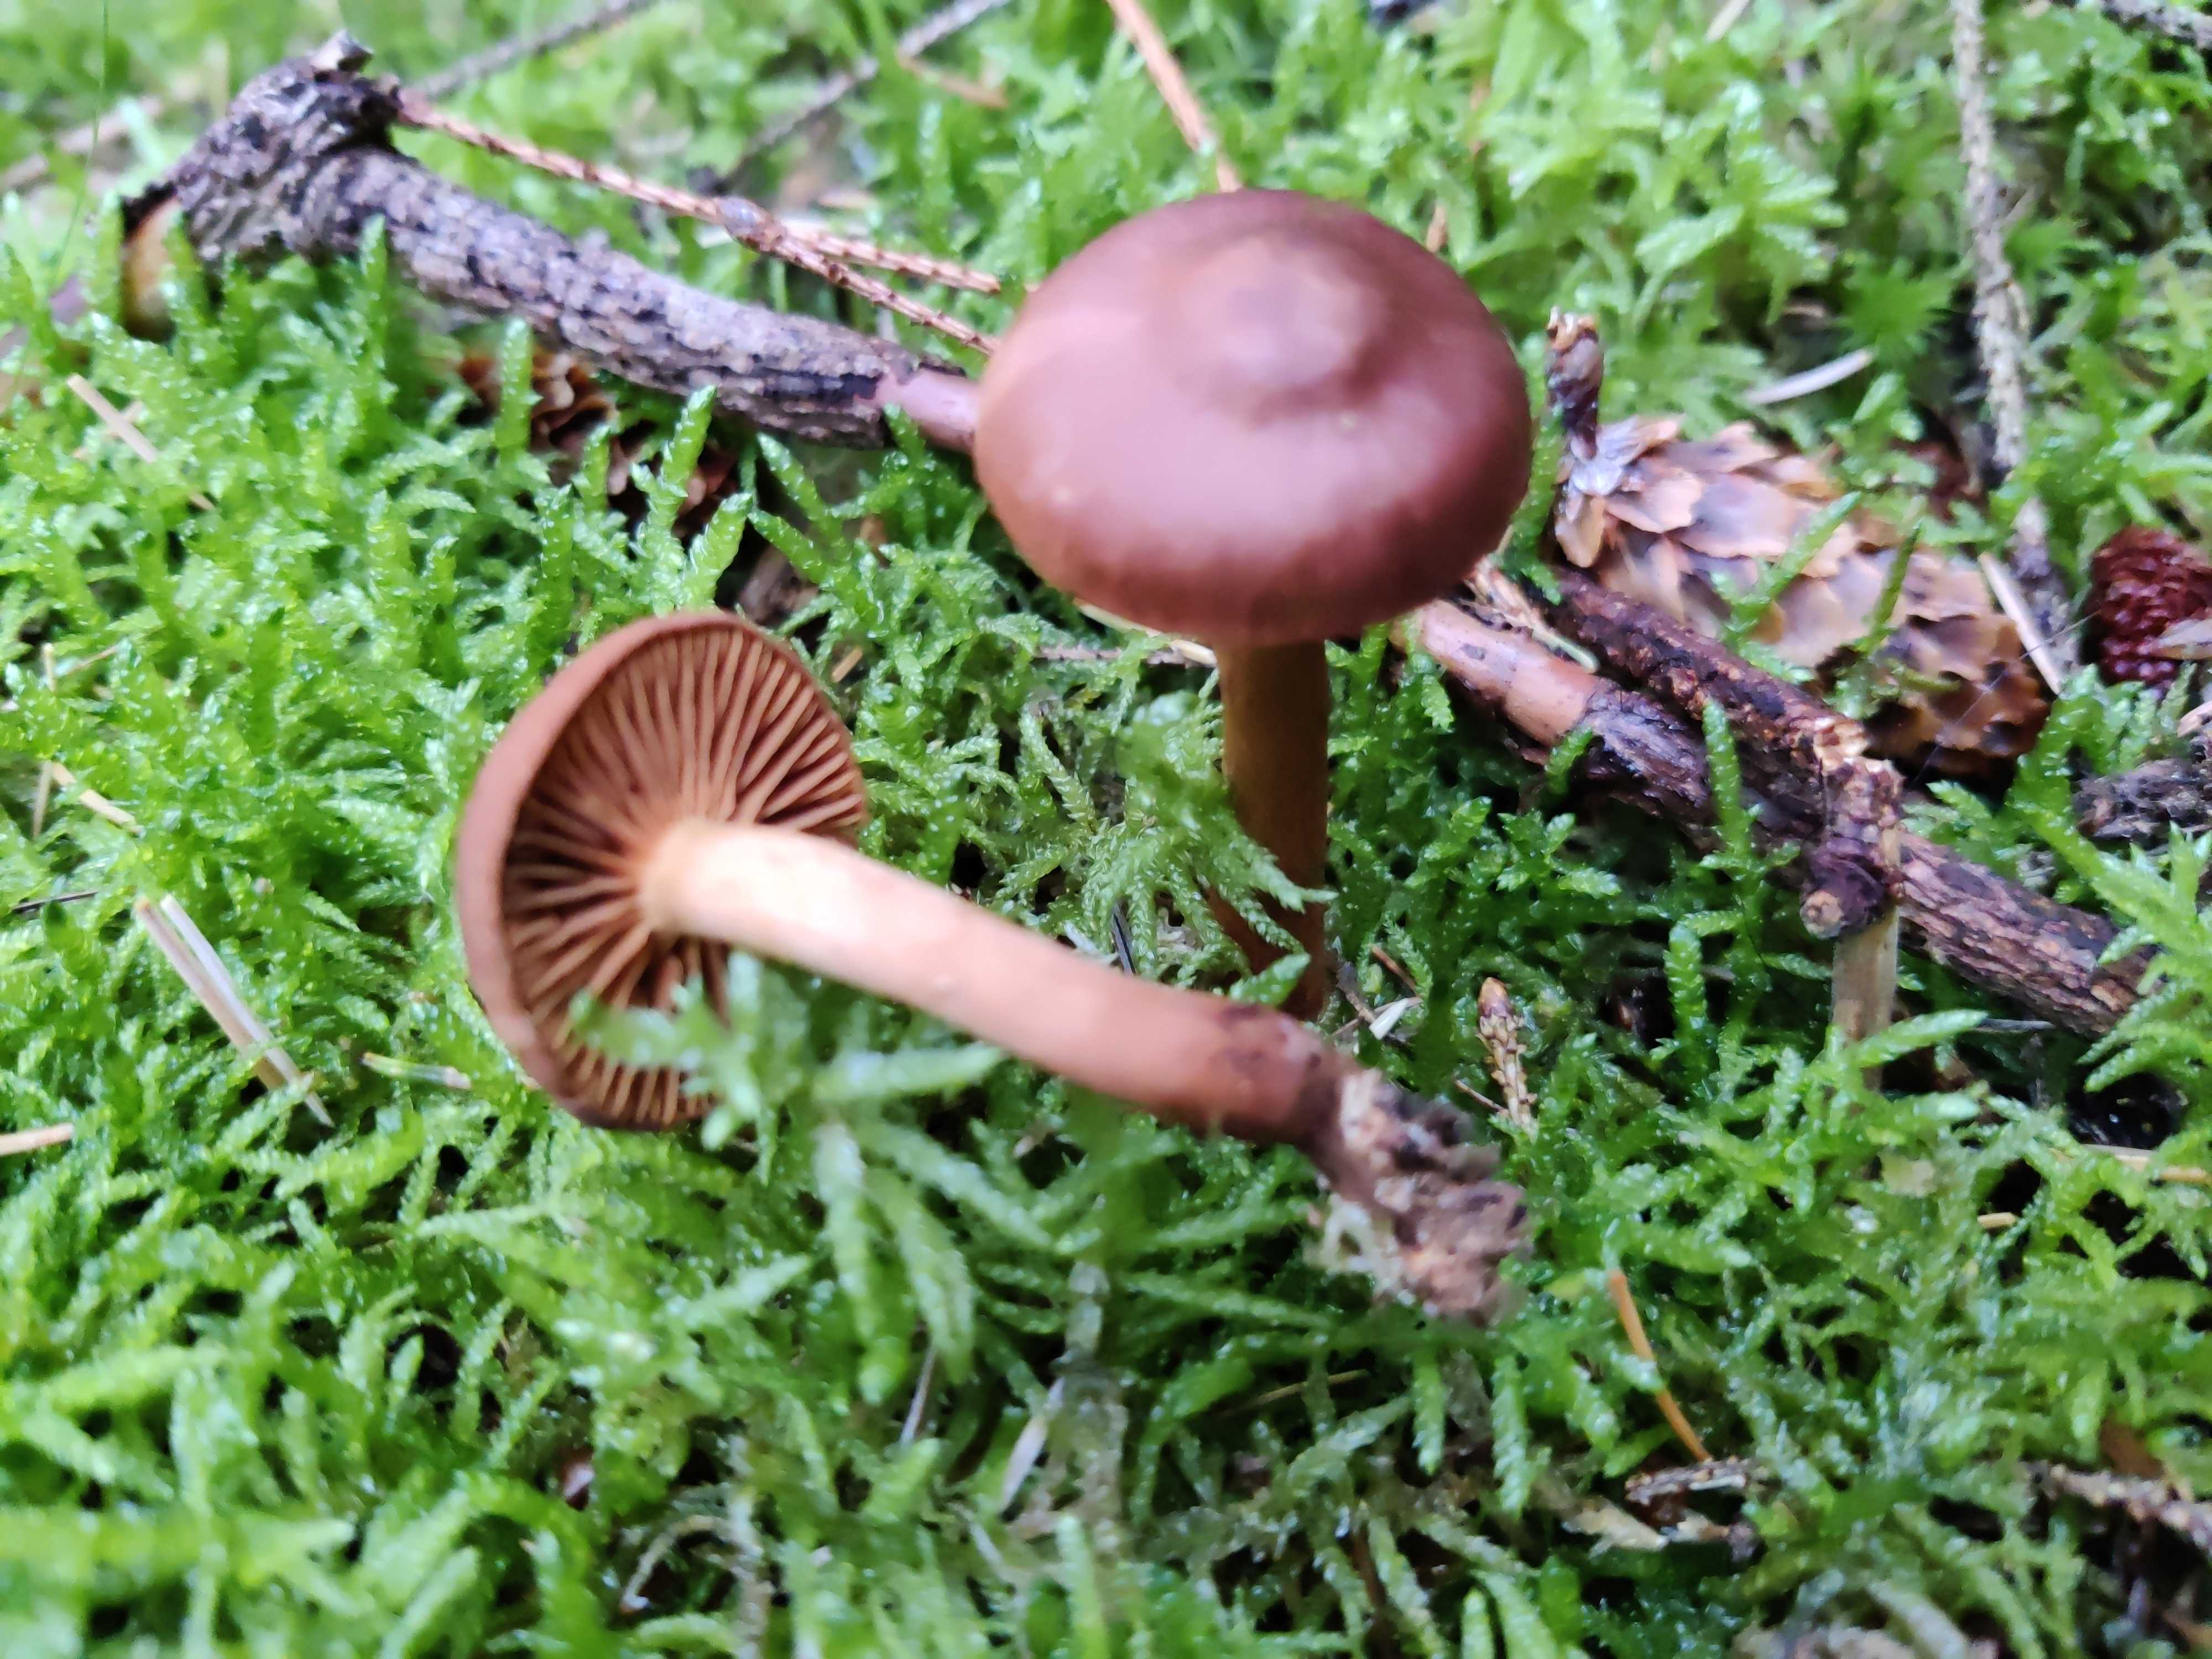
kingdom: Fungi
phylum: Basidiomycota
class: Agaricomycetes
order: Agaricales
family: Cortinariaceae
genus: Cortinarius
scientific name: Cortinarius cinnamomeus
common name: kanel-slørhat
